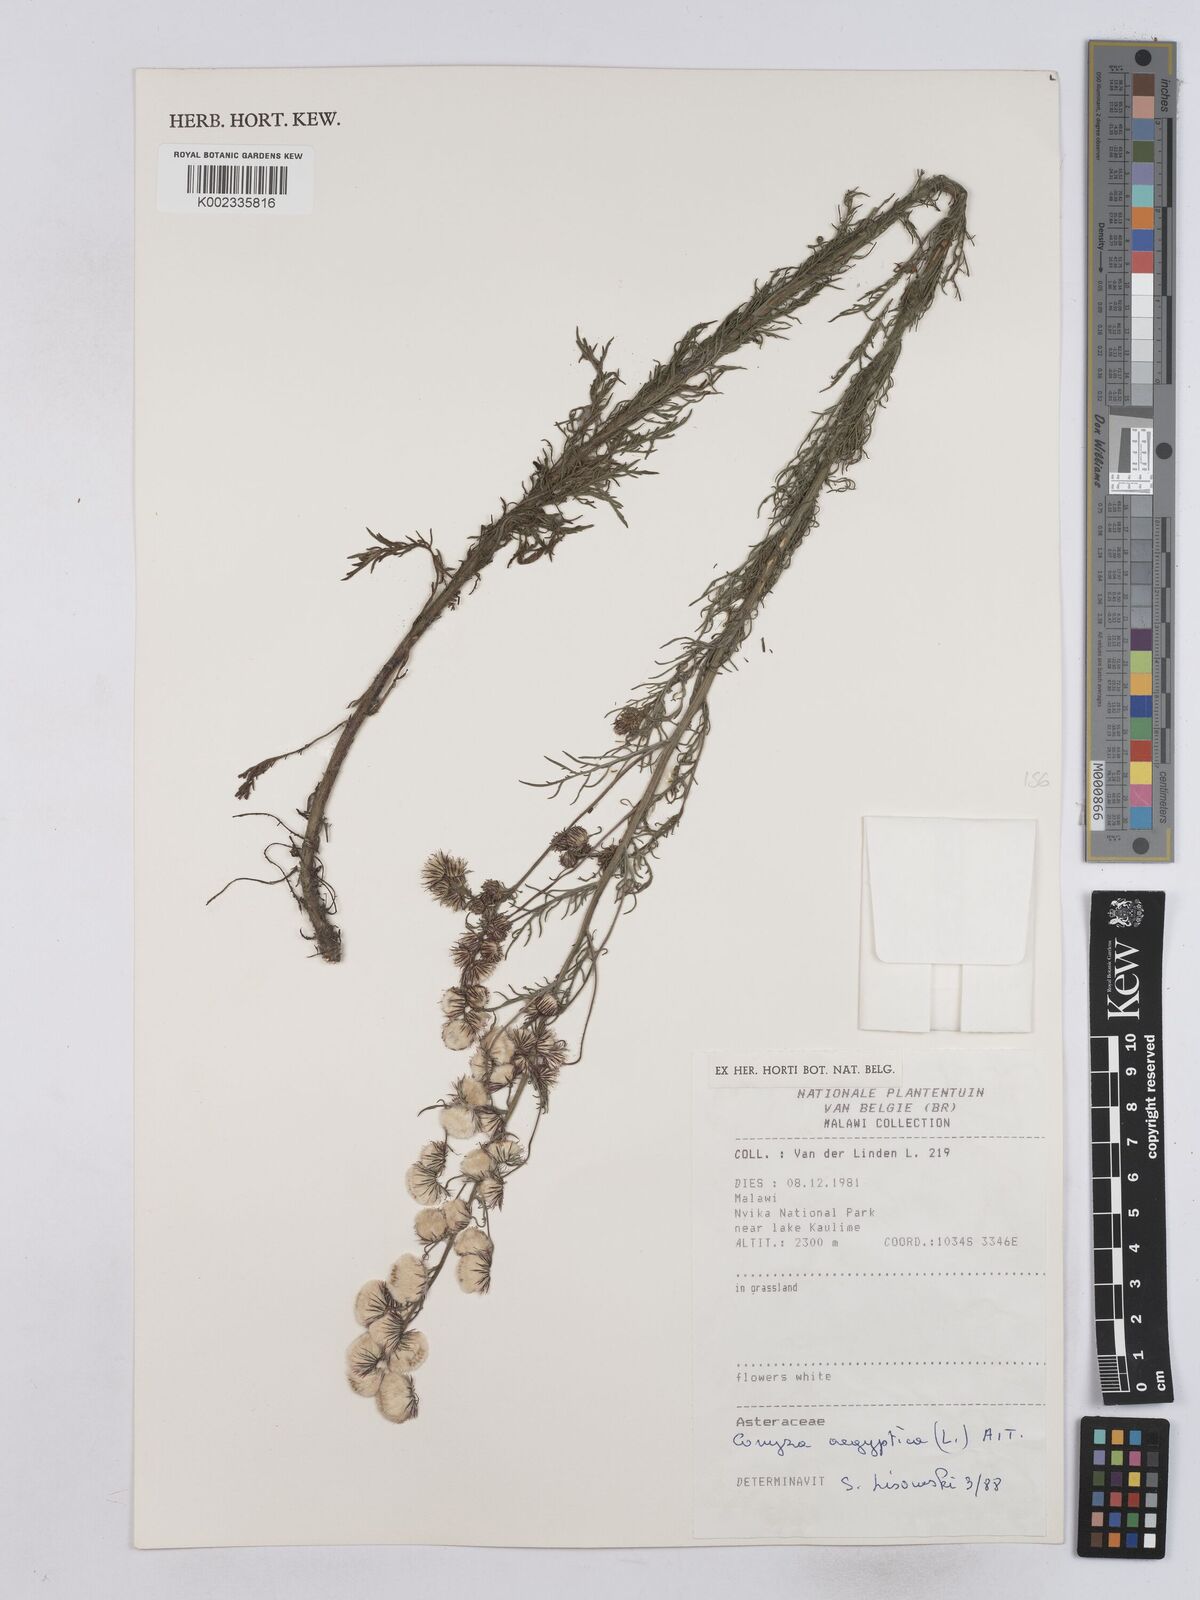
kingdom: Plantae
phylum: Tracheophyta
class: Magnoliopsida
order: Asterales
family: Asteraceae
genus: Nidorella
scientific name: Nidorella aegyptiaca
